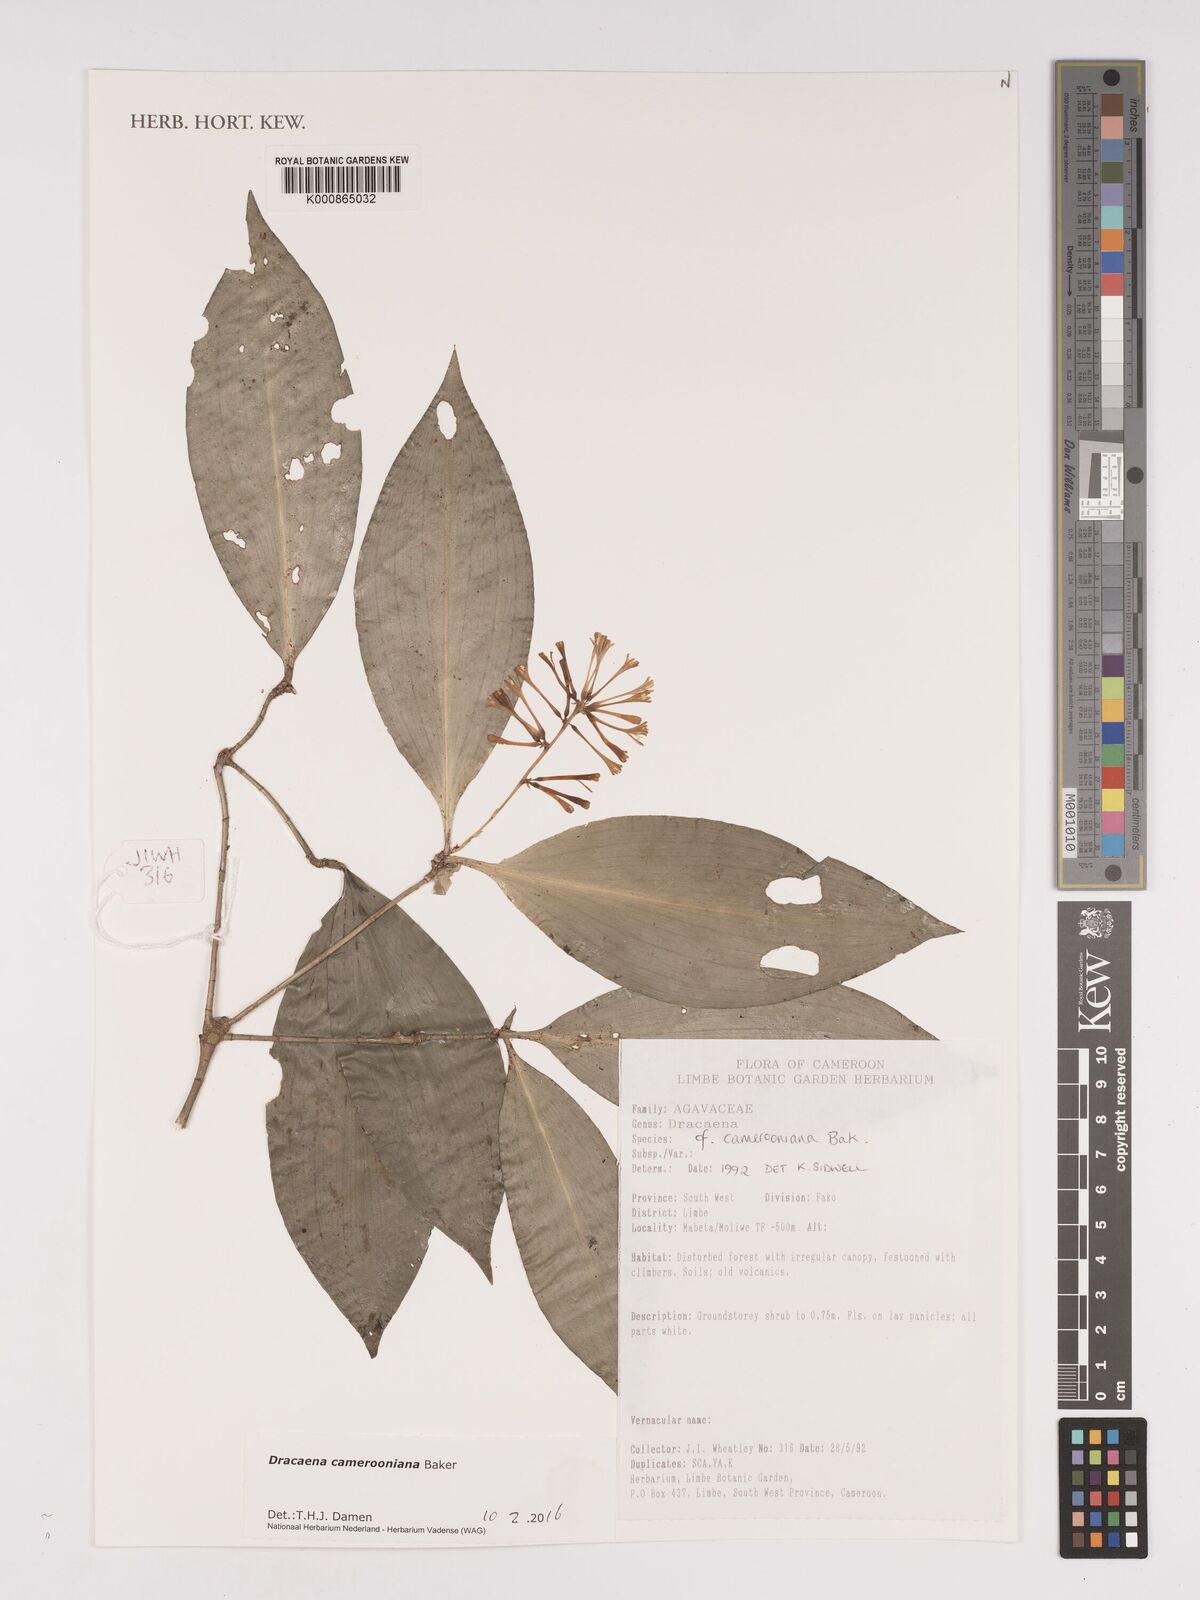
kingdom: Plantae
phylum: Tracheophyta
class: Liliopsida
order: Asparagales
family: Asparagaceae
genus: Dracaena
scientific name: Dracaena camerooniana
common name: Dragon tree
